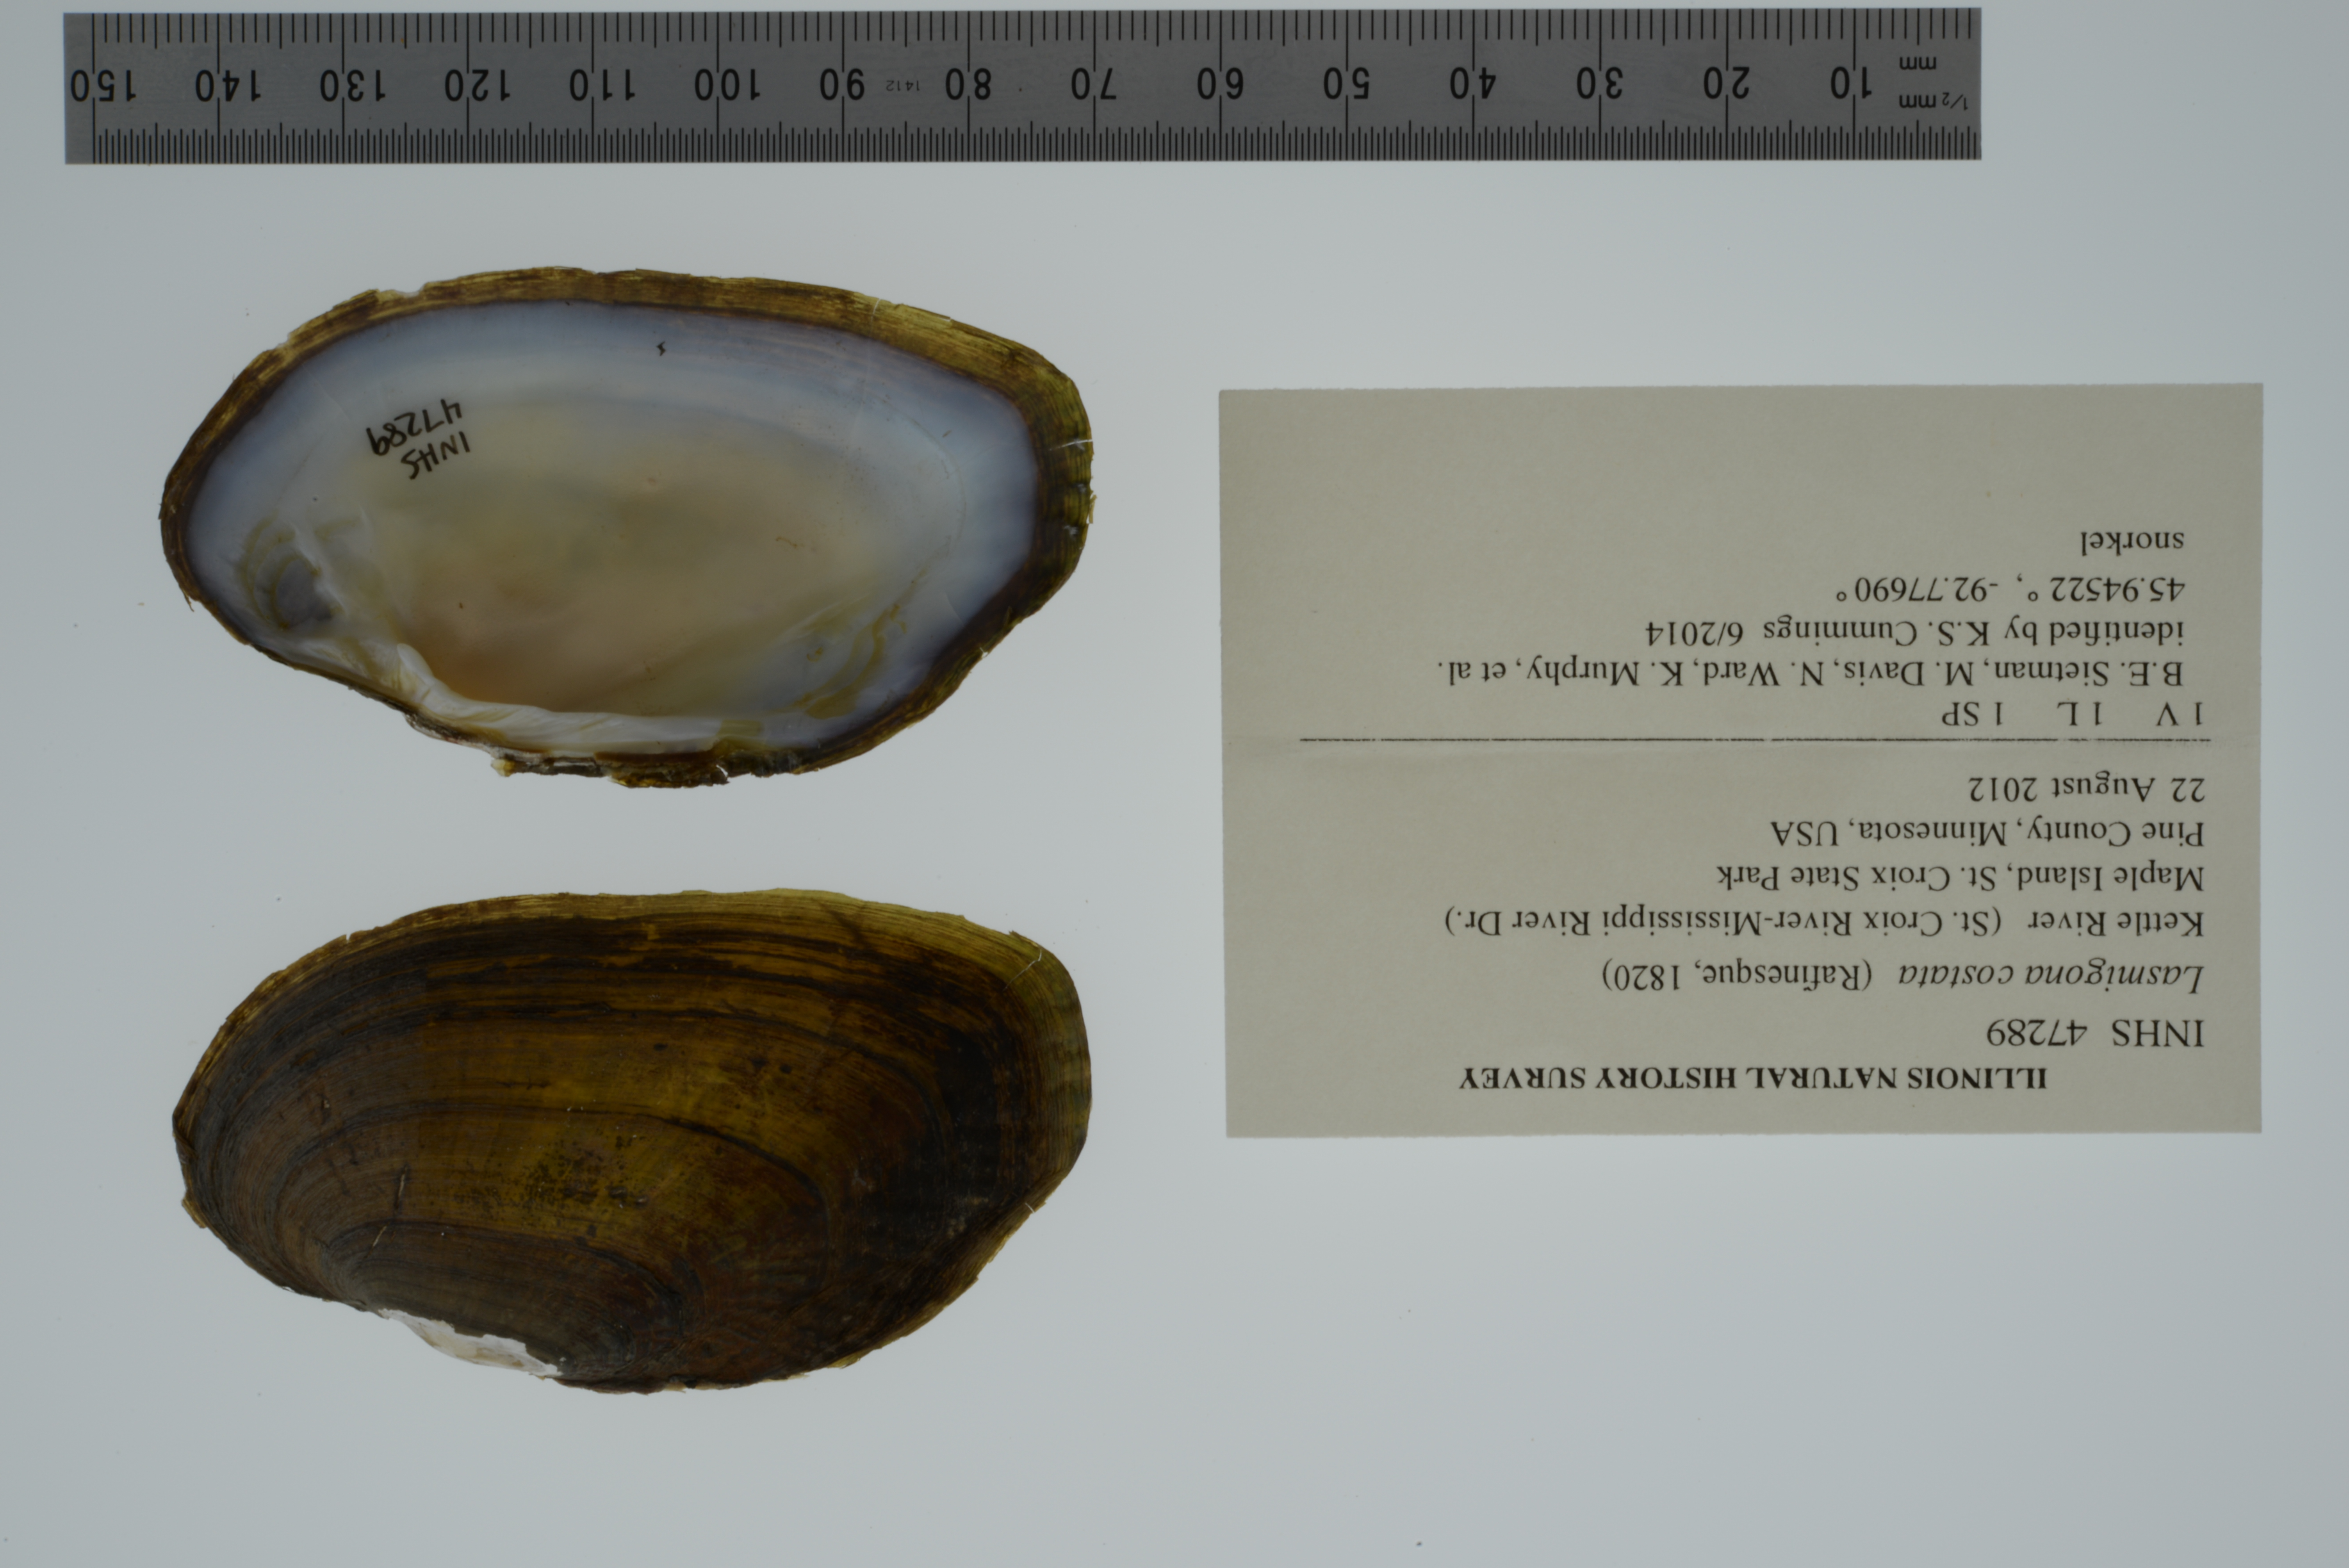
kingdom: Animalia
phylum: Mollusca
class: Bivalvia
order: Unionida
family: Unionidae
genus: Lasmigona
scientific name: Lasmigona costata
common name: Flutedshell
